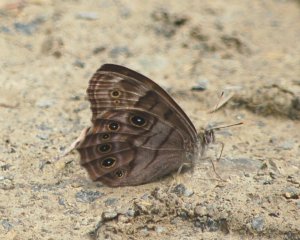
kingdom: Animalia
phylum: Arthropoda
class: Insecta
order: Lepidoptera
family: Nymphalidae
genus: Lethe
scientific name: Lethe anthedon
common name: Northern Pearly-Eye
